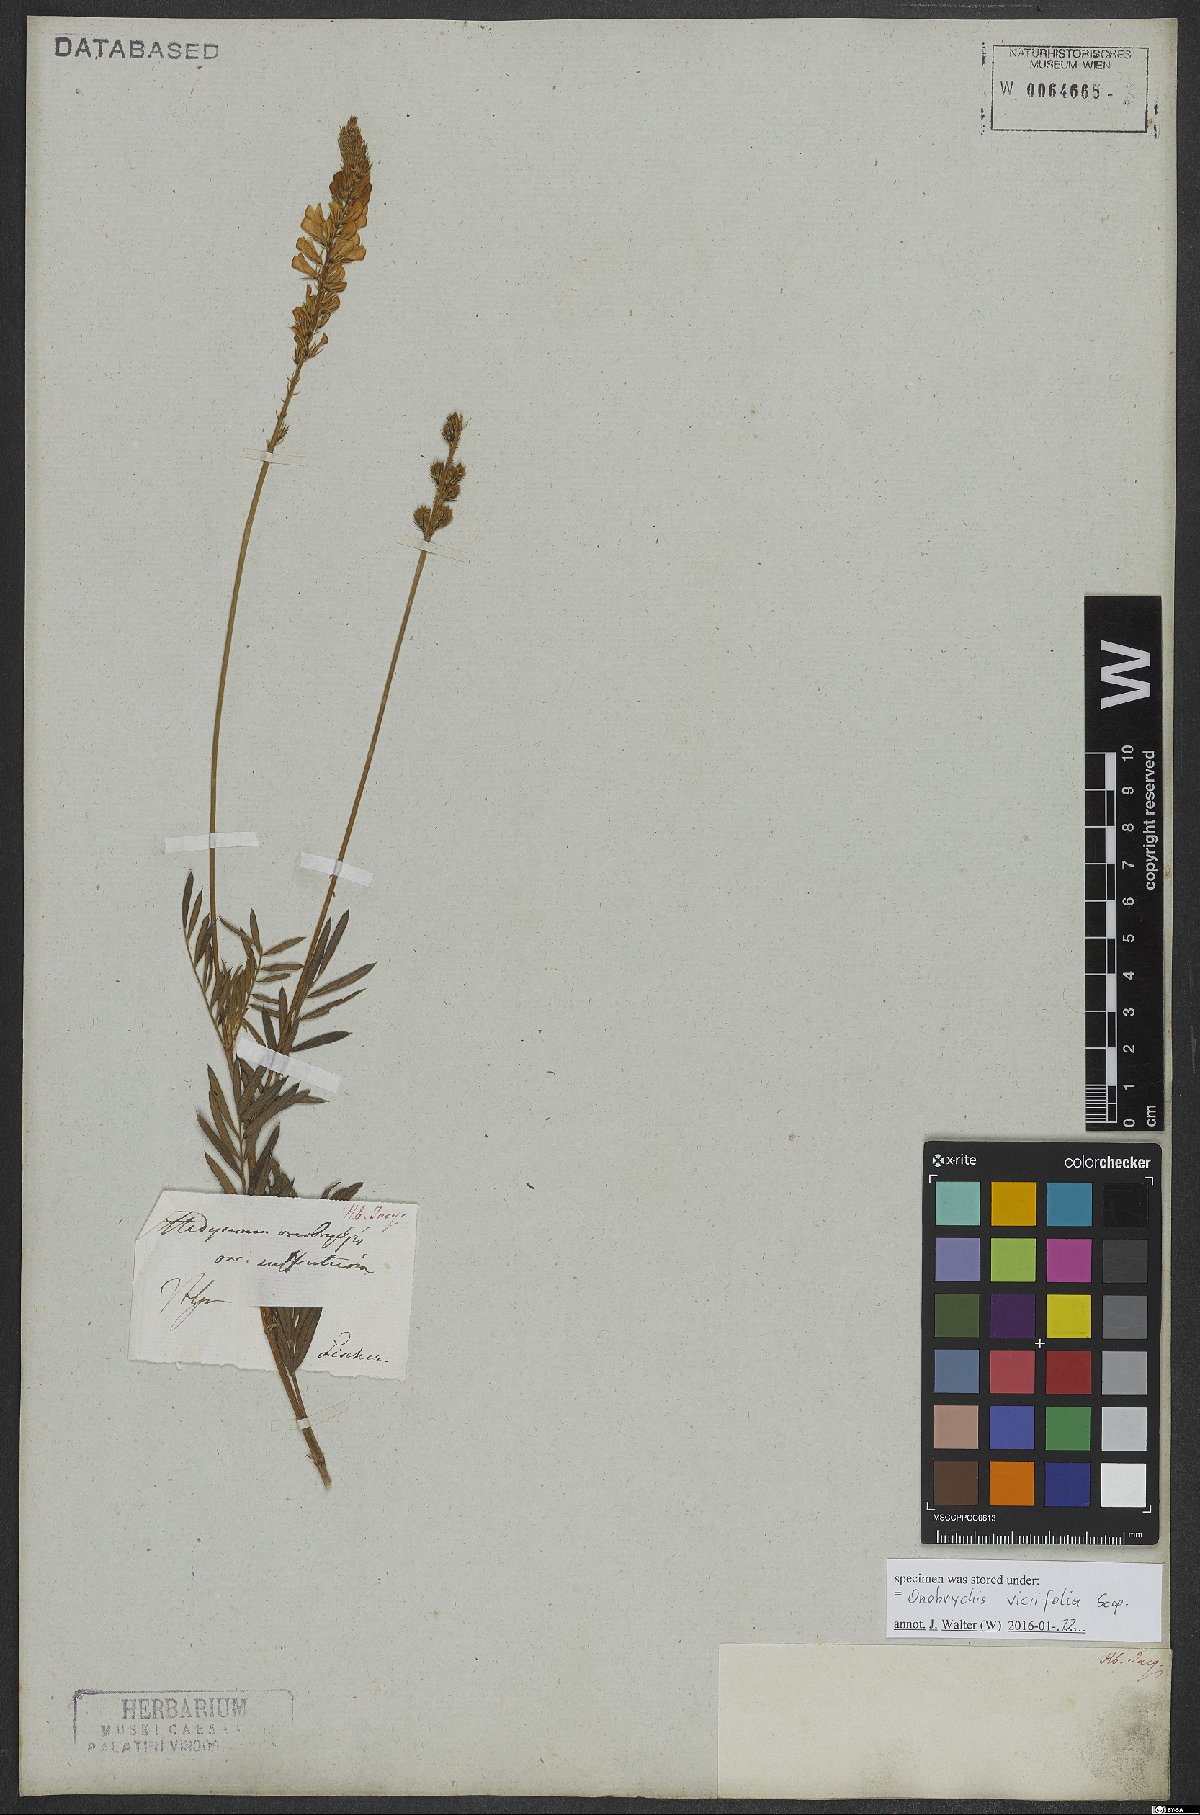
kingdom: Plantae
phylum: Tracheophyta
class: Magnoliopsida
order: Fabales
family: Fabaceae
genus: Onobrychis
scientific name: Onobrychis viciifolia
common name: Sainfoin
